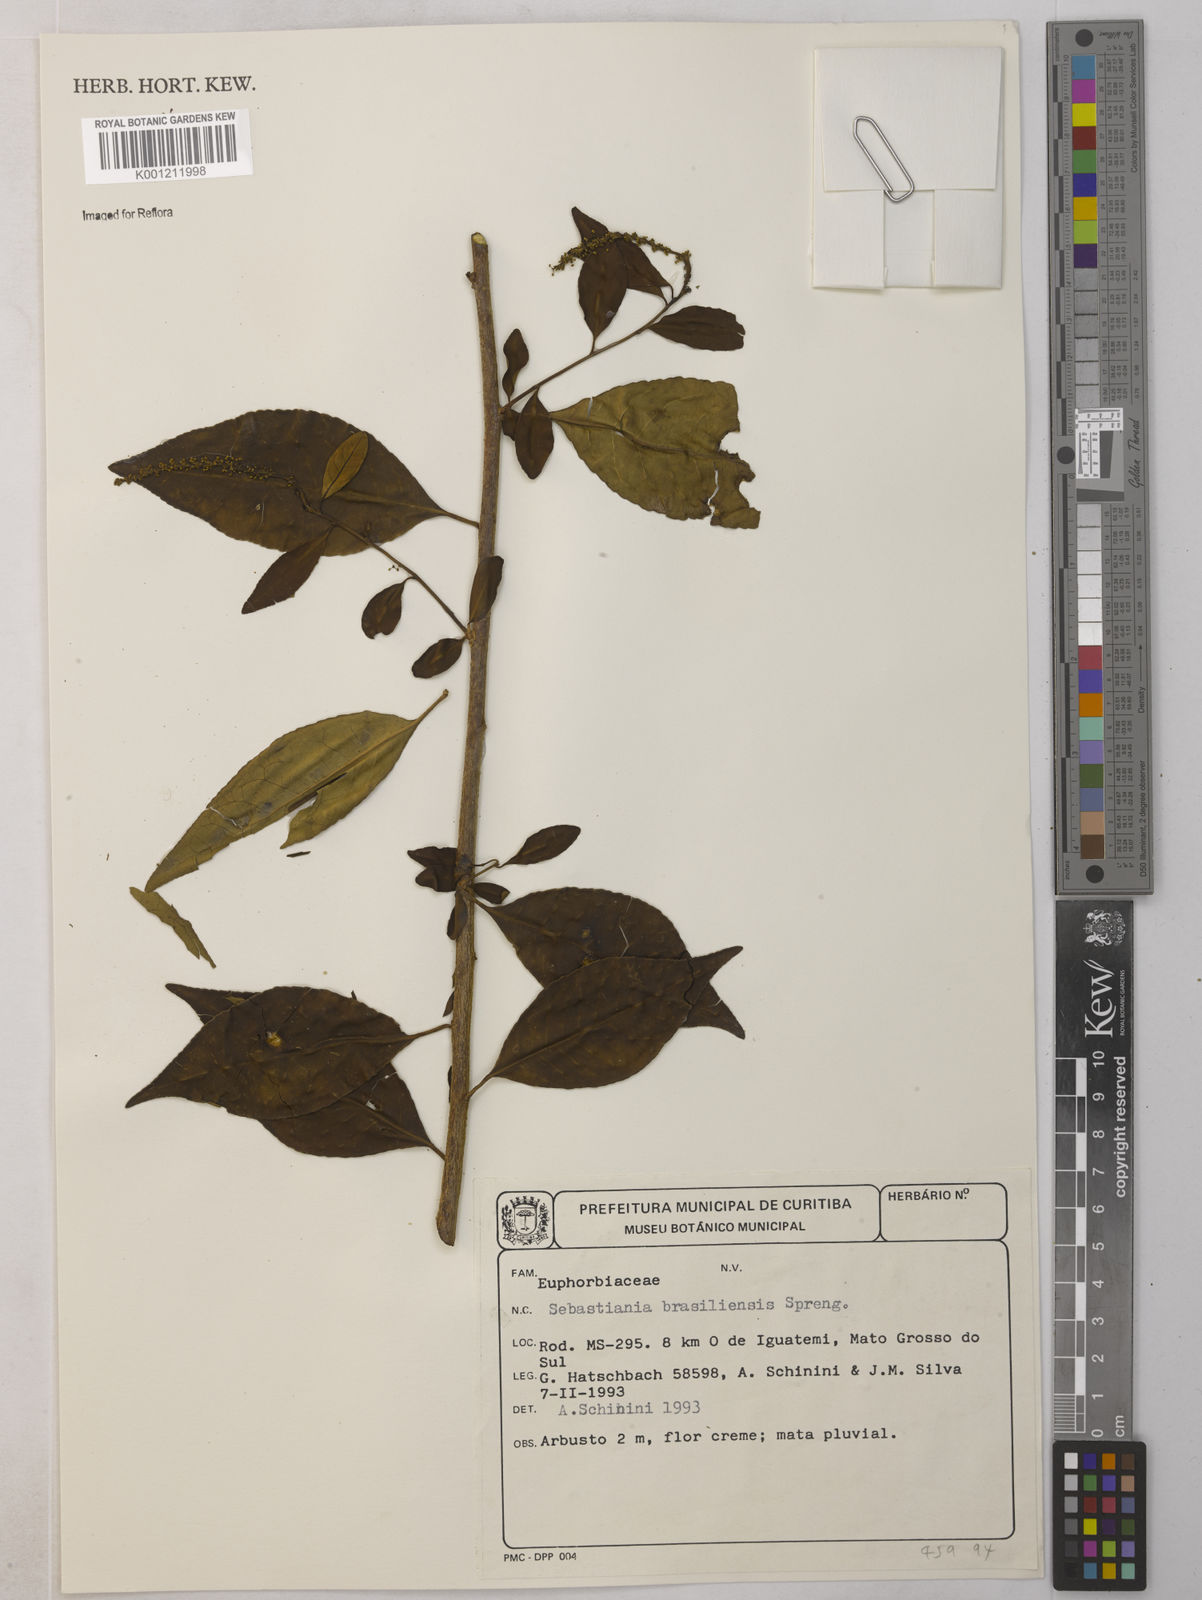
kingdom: Plantae
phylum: Tracheophyta
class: Magnoliopsida
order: Malpighiales
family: Euphorbiaceae
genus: Sebastiania
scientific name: Sebastiania brasiliensis
